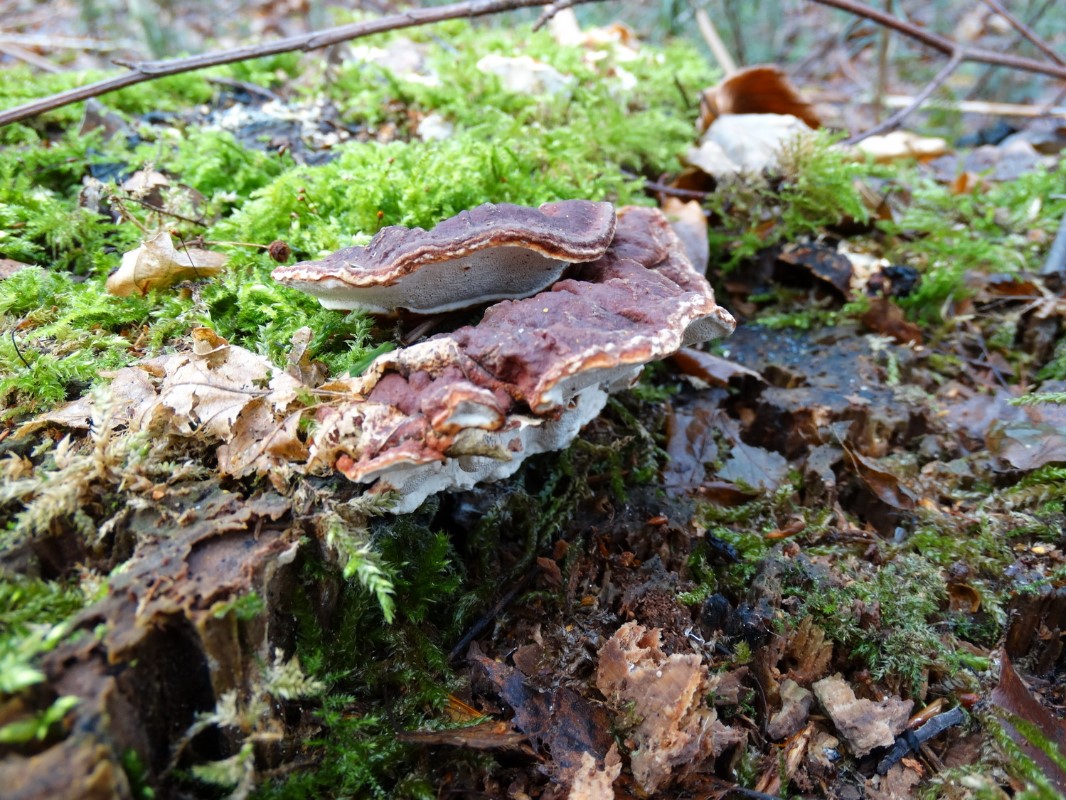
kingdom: Fungi
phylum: Basidiomycota
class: Agaricomycetes
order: Russulales
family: Bondarzewiaceae
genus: Heterobasidion
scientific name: Heterobasidion annosum
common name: almindelig rodfordærver
